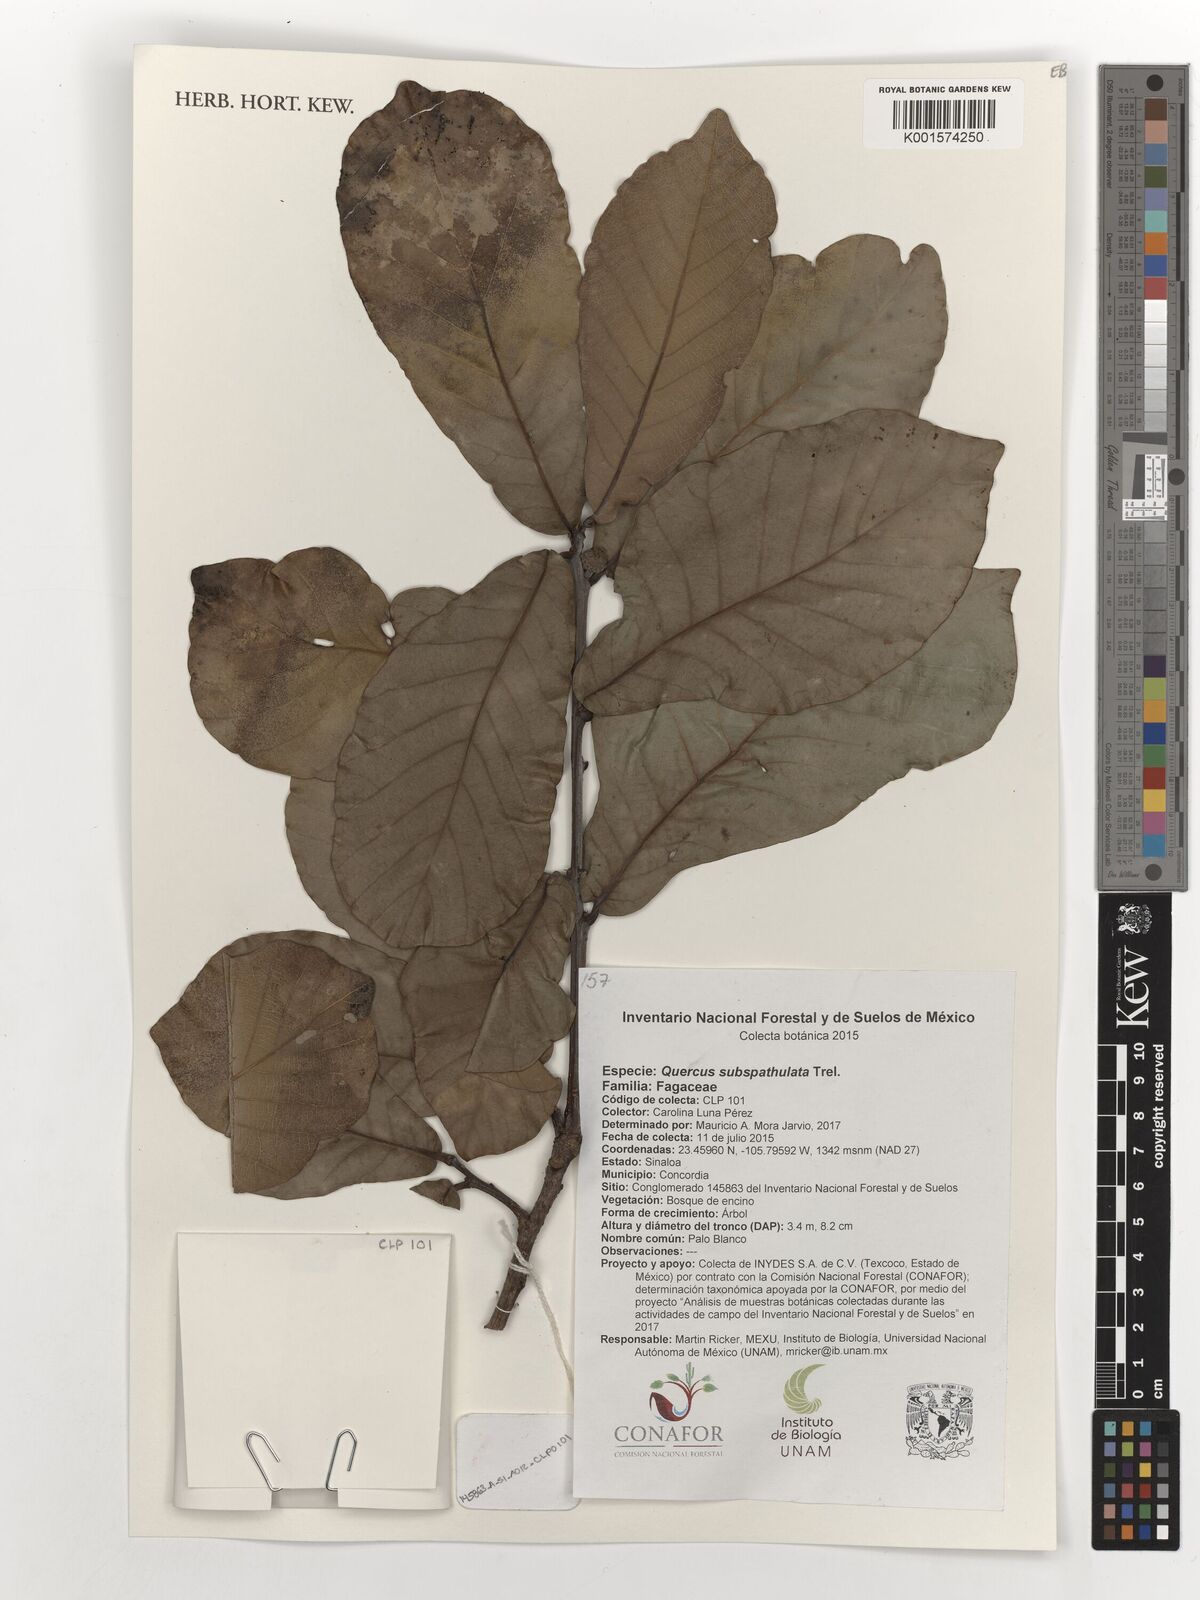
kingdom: Plantae
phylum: Tracheophyta
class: Magnoliopsida
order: Fagales
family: Fagaceae
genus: Quercus
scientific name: Quercus subspathulata
